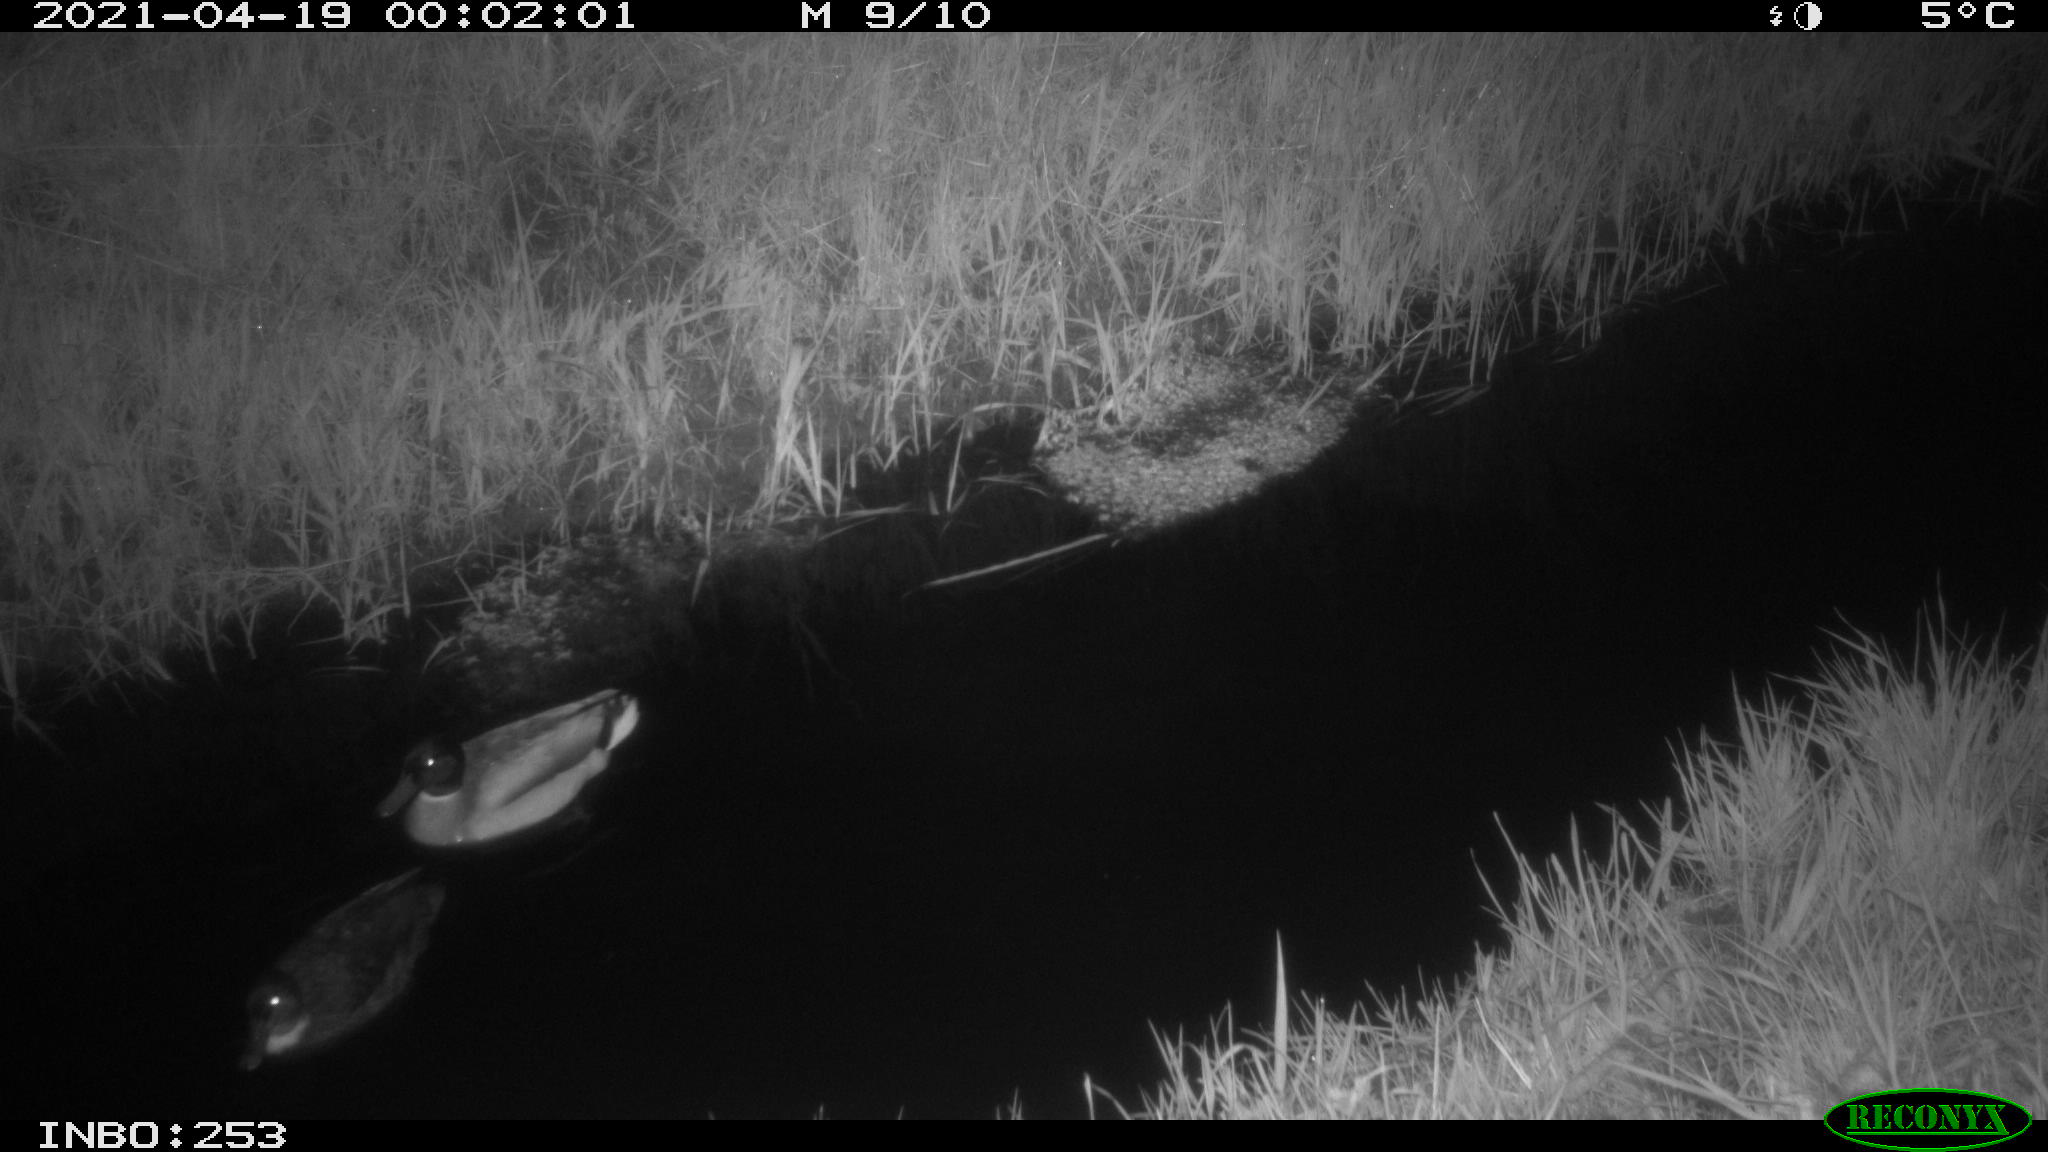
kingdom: Animalia
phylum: Chordata
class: Aves
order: Anseriformes
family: Anatidae
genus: Anas
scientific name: Anas platyrhynchos
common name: Mallard
